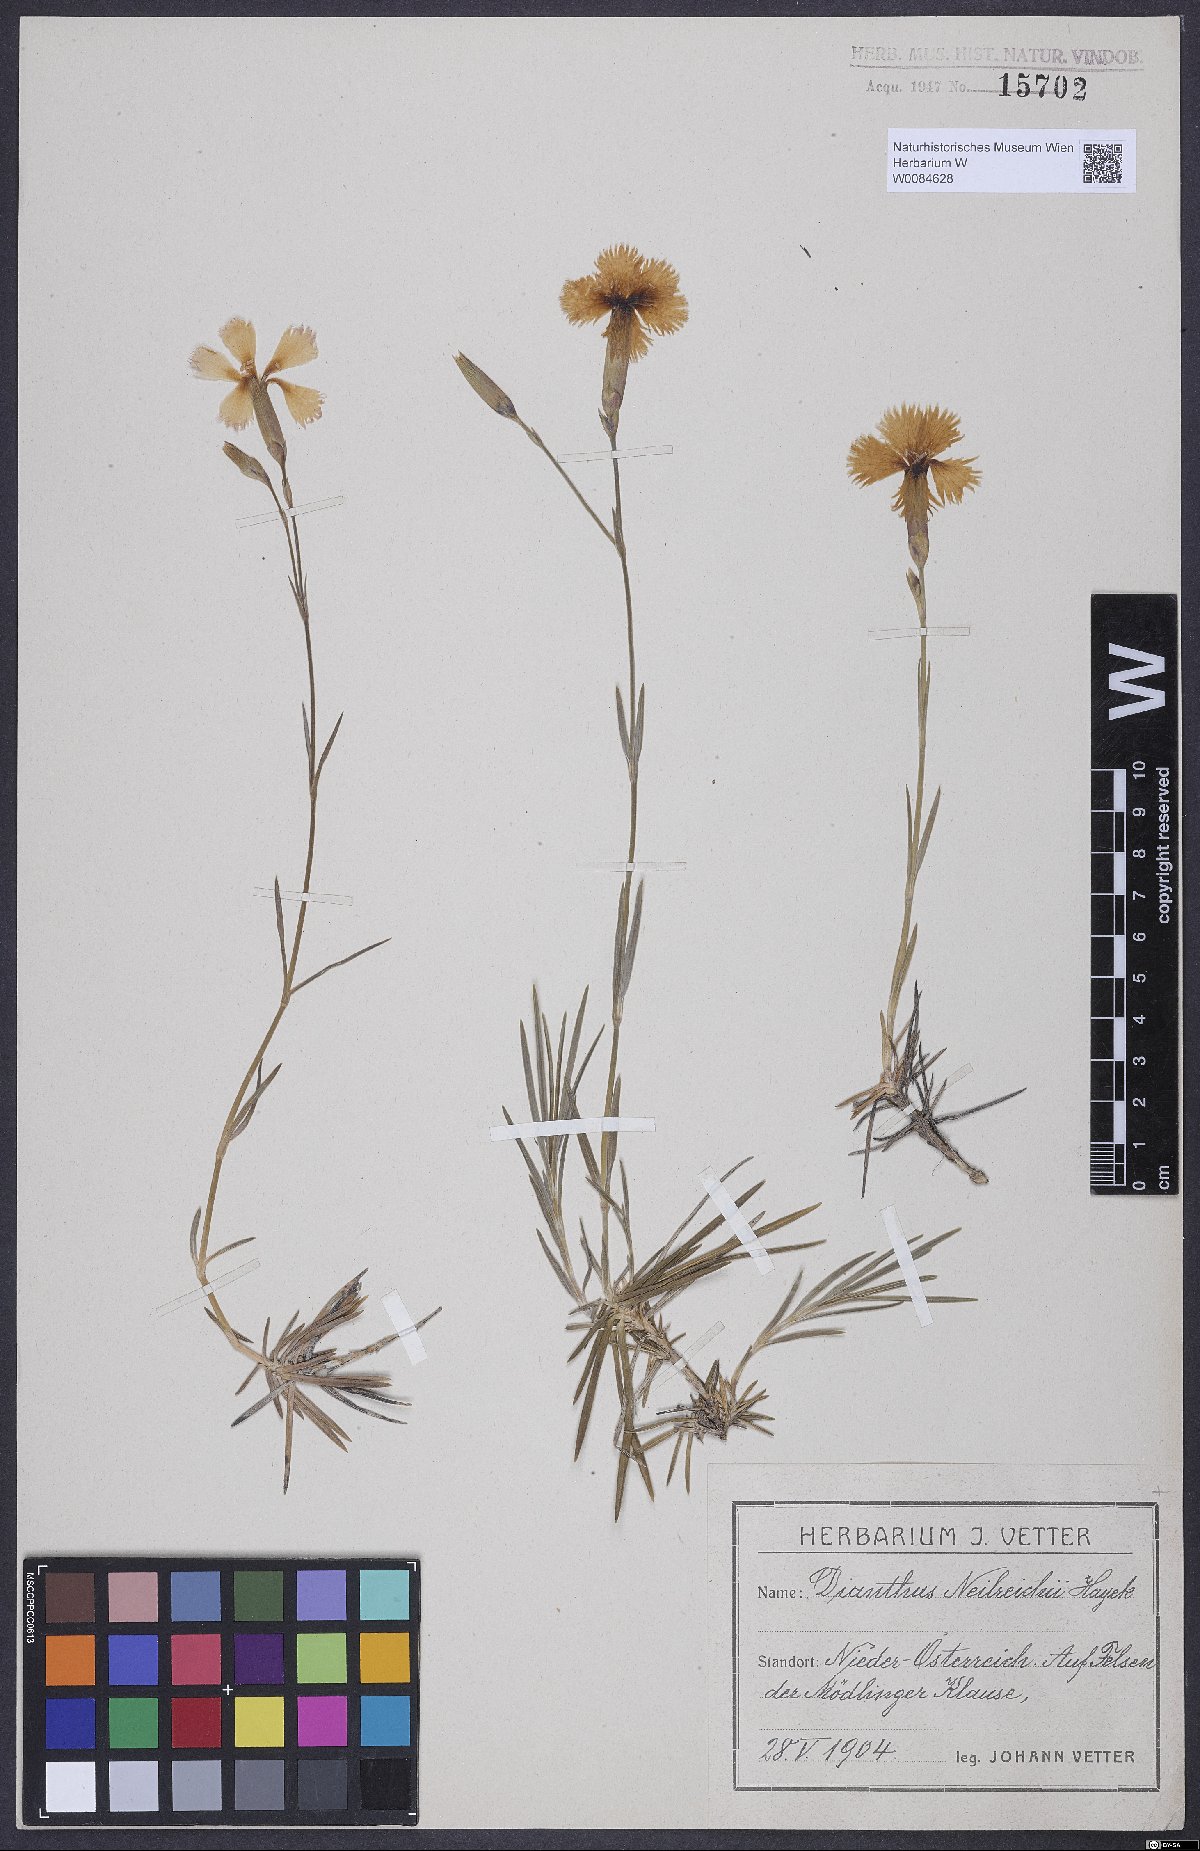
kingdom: Plantae
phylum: Tracheophyta
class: Magnoliopsida
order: Caryophyllales
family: Caryophyllaceae
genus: Dianthus
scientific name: Dianthus plumarius
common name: Pink
